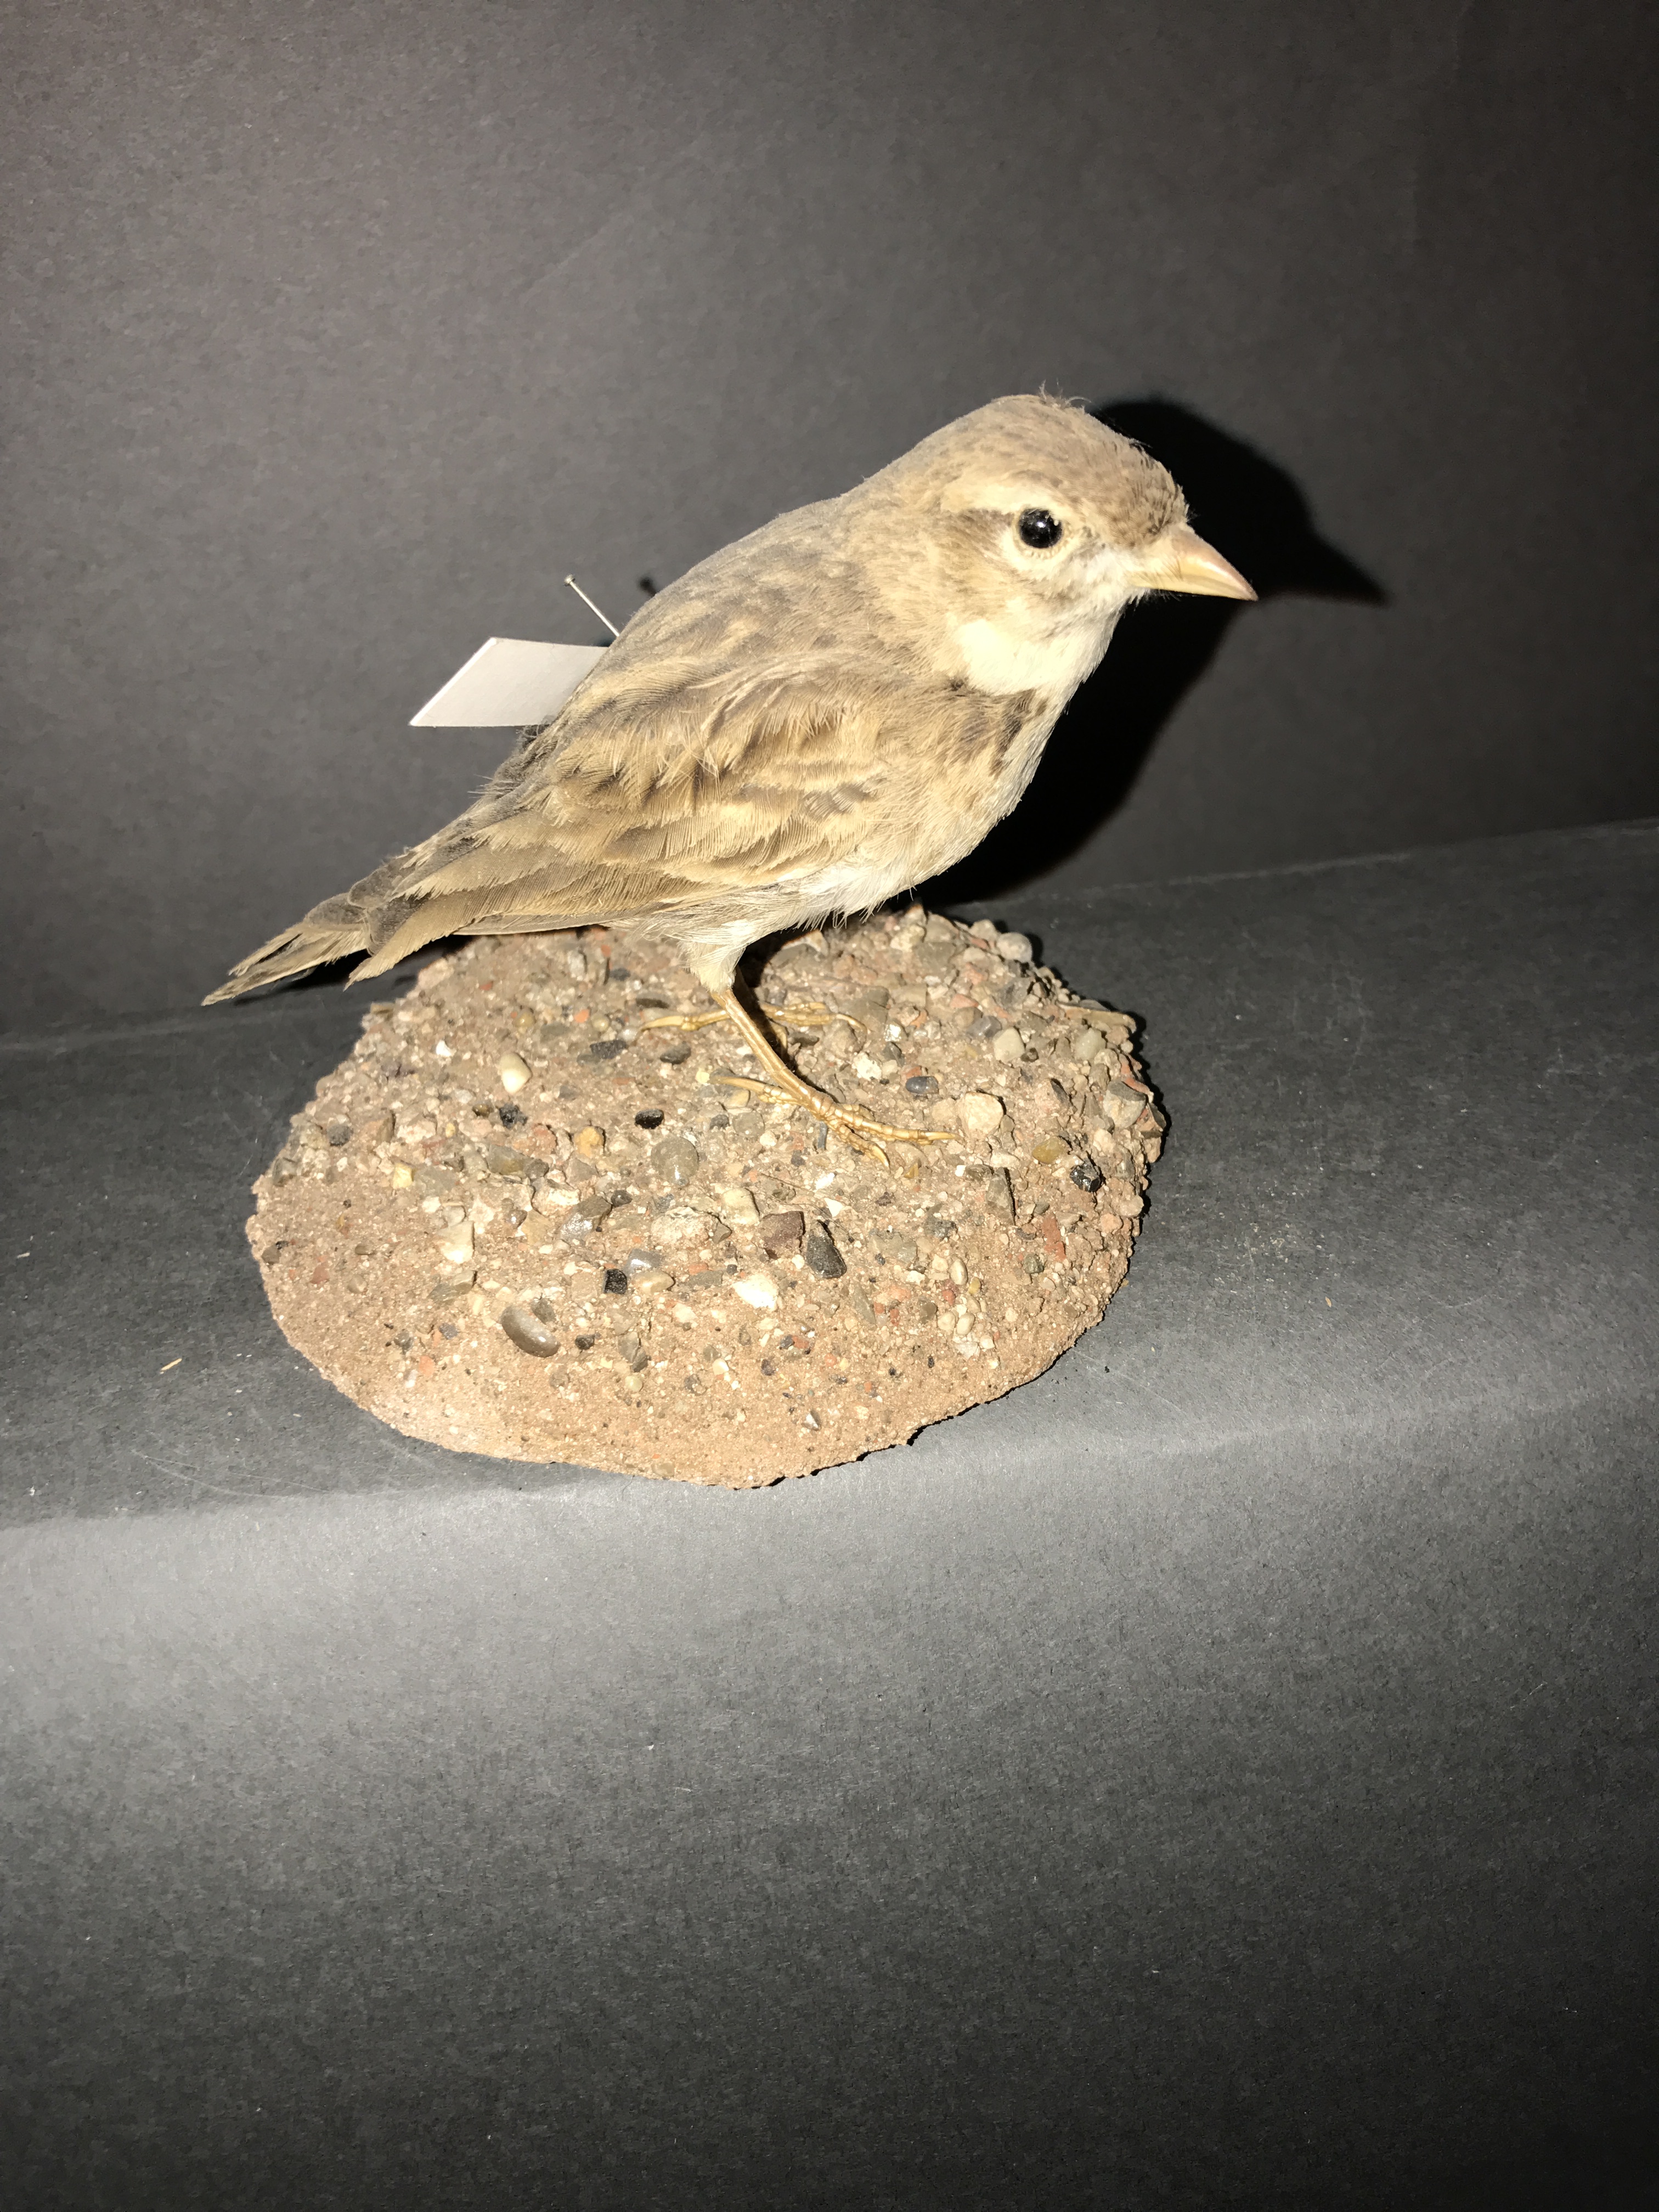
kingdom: Animalia
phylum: Chordata
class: Aves
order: Passeriformes
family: Alaudidae
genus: Calandrella
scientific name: Calandrella brachydactyla
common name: Greater short-toed lark
